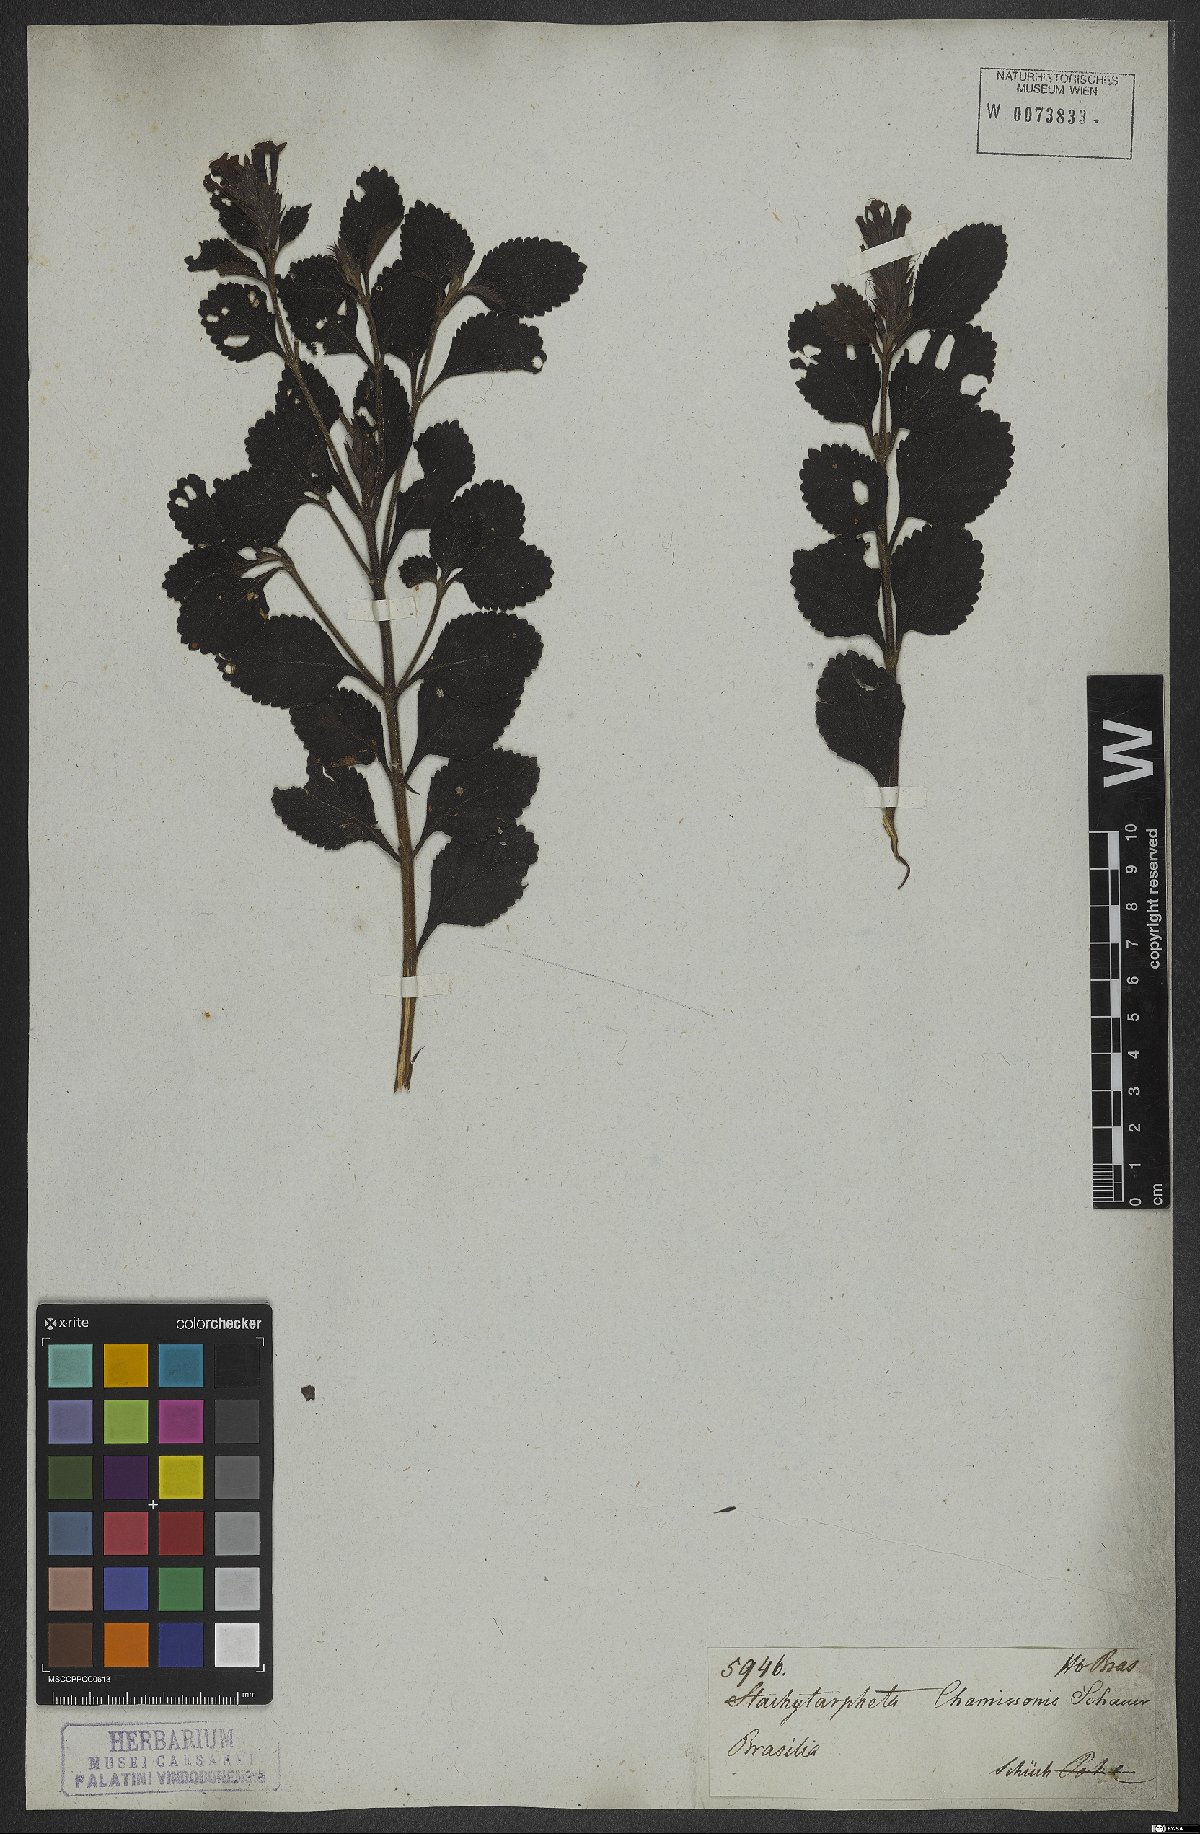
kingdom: Plantae
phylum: Tracheophyta
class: Magnoliopsida
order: Lamiales
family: Verbenaceae
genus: Stachytarpheta
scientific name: Stachytarpheta longispicata
